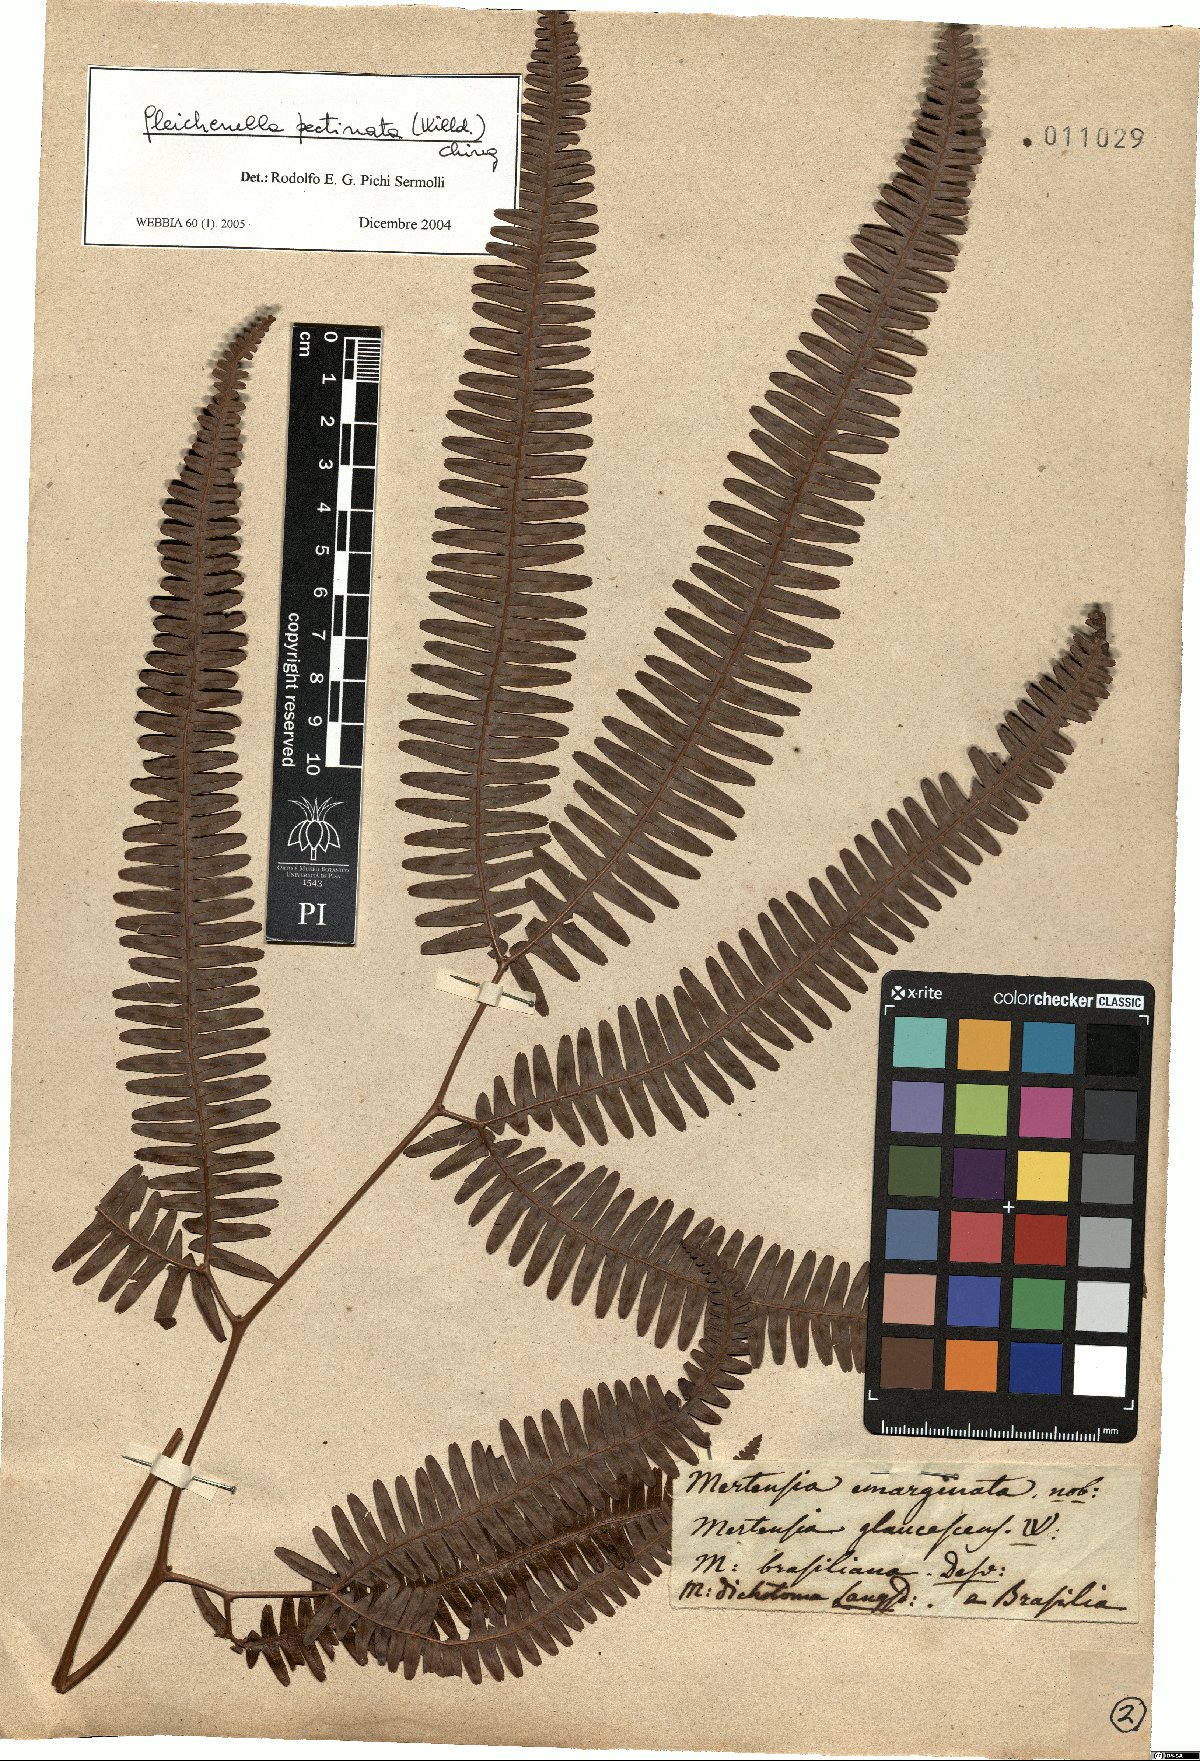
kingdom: Plantae
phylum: Tracheophyta
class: Polypodiopsida
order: Gleicheniales
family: Gleicheniaceae
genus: Gleichenella
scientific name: Gleichenella pectinata
